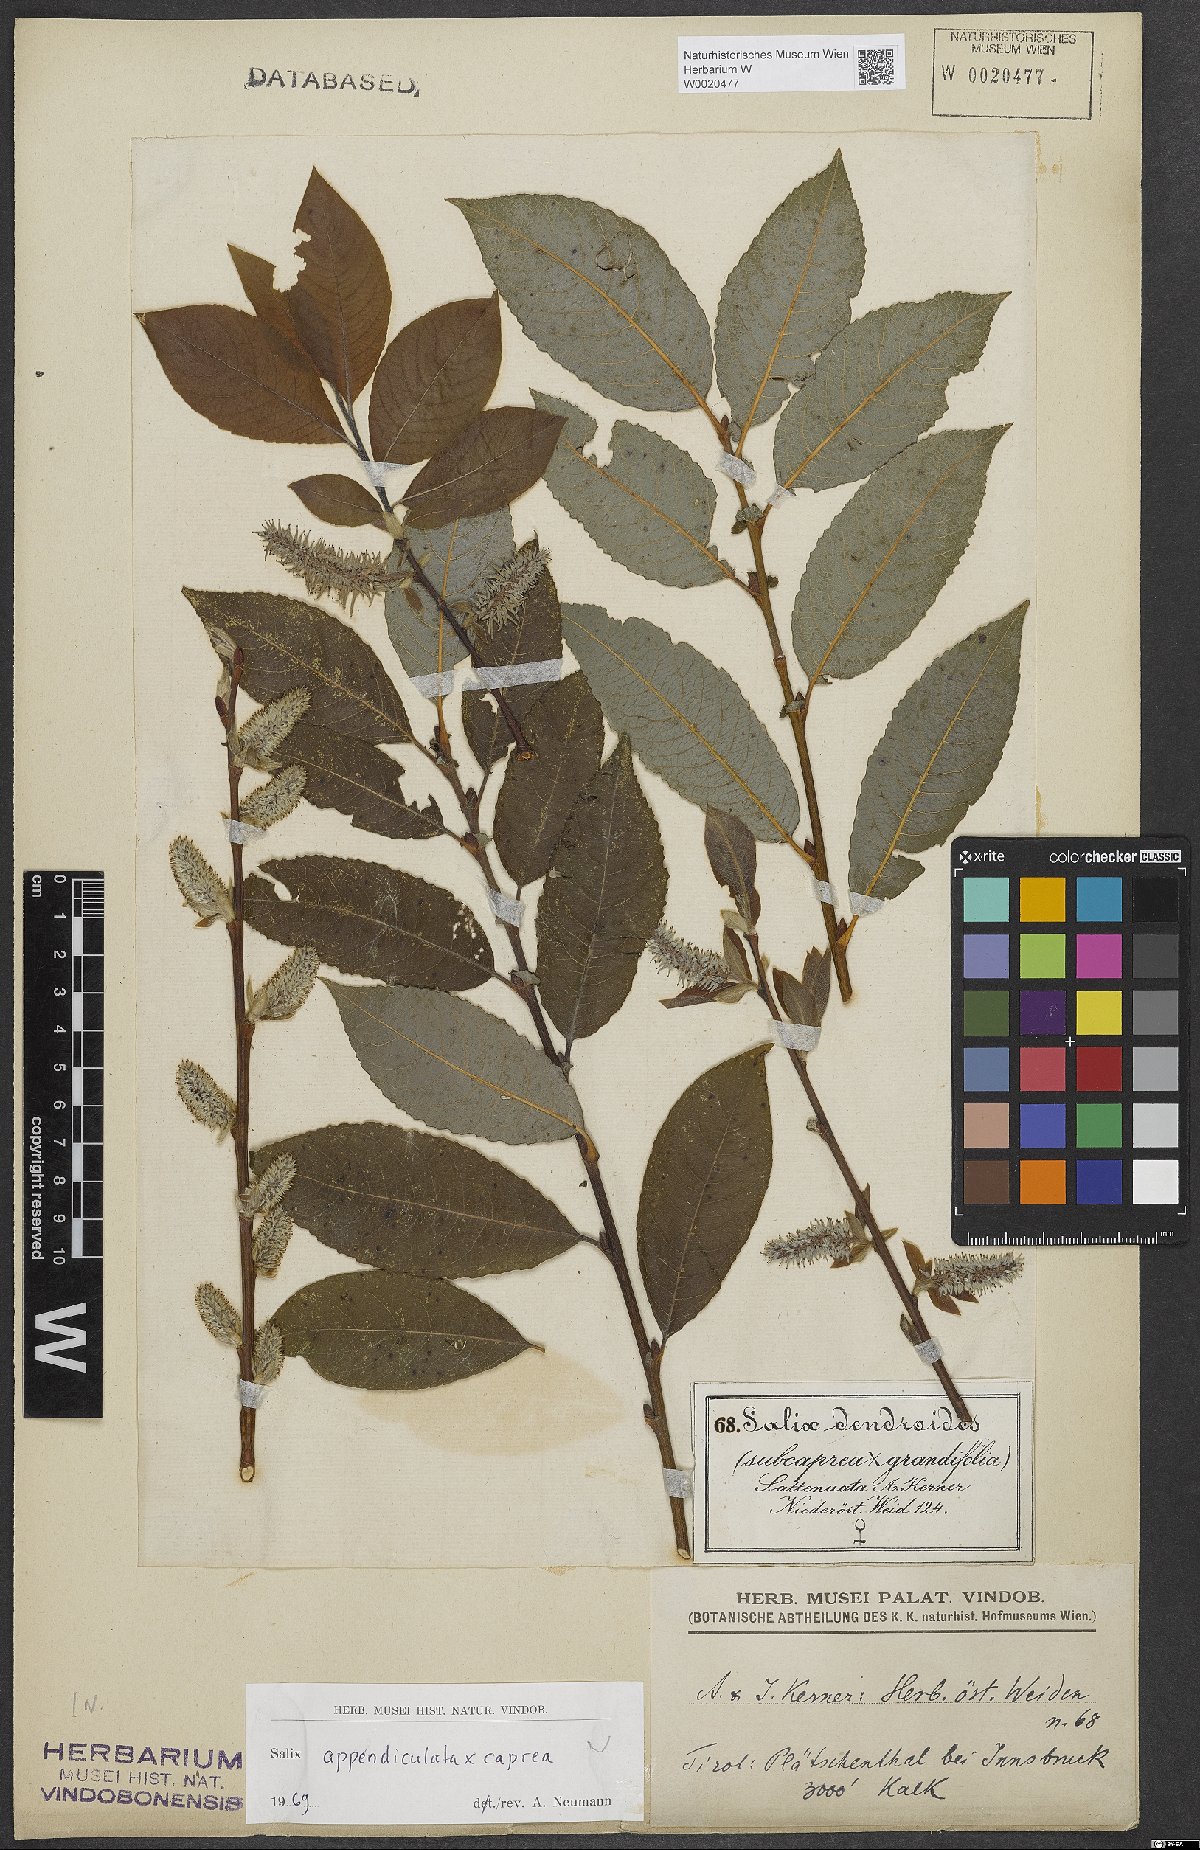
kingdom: Plantae
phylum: Tracheophyta
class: Magnoliopsida
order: Malpighiales
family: Salicaceae
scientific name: Salicaceae
